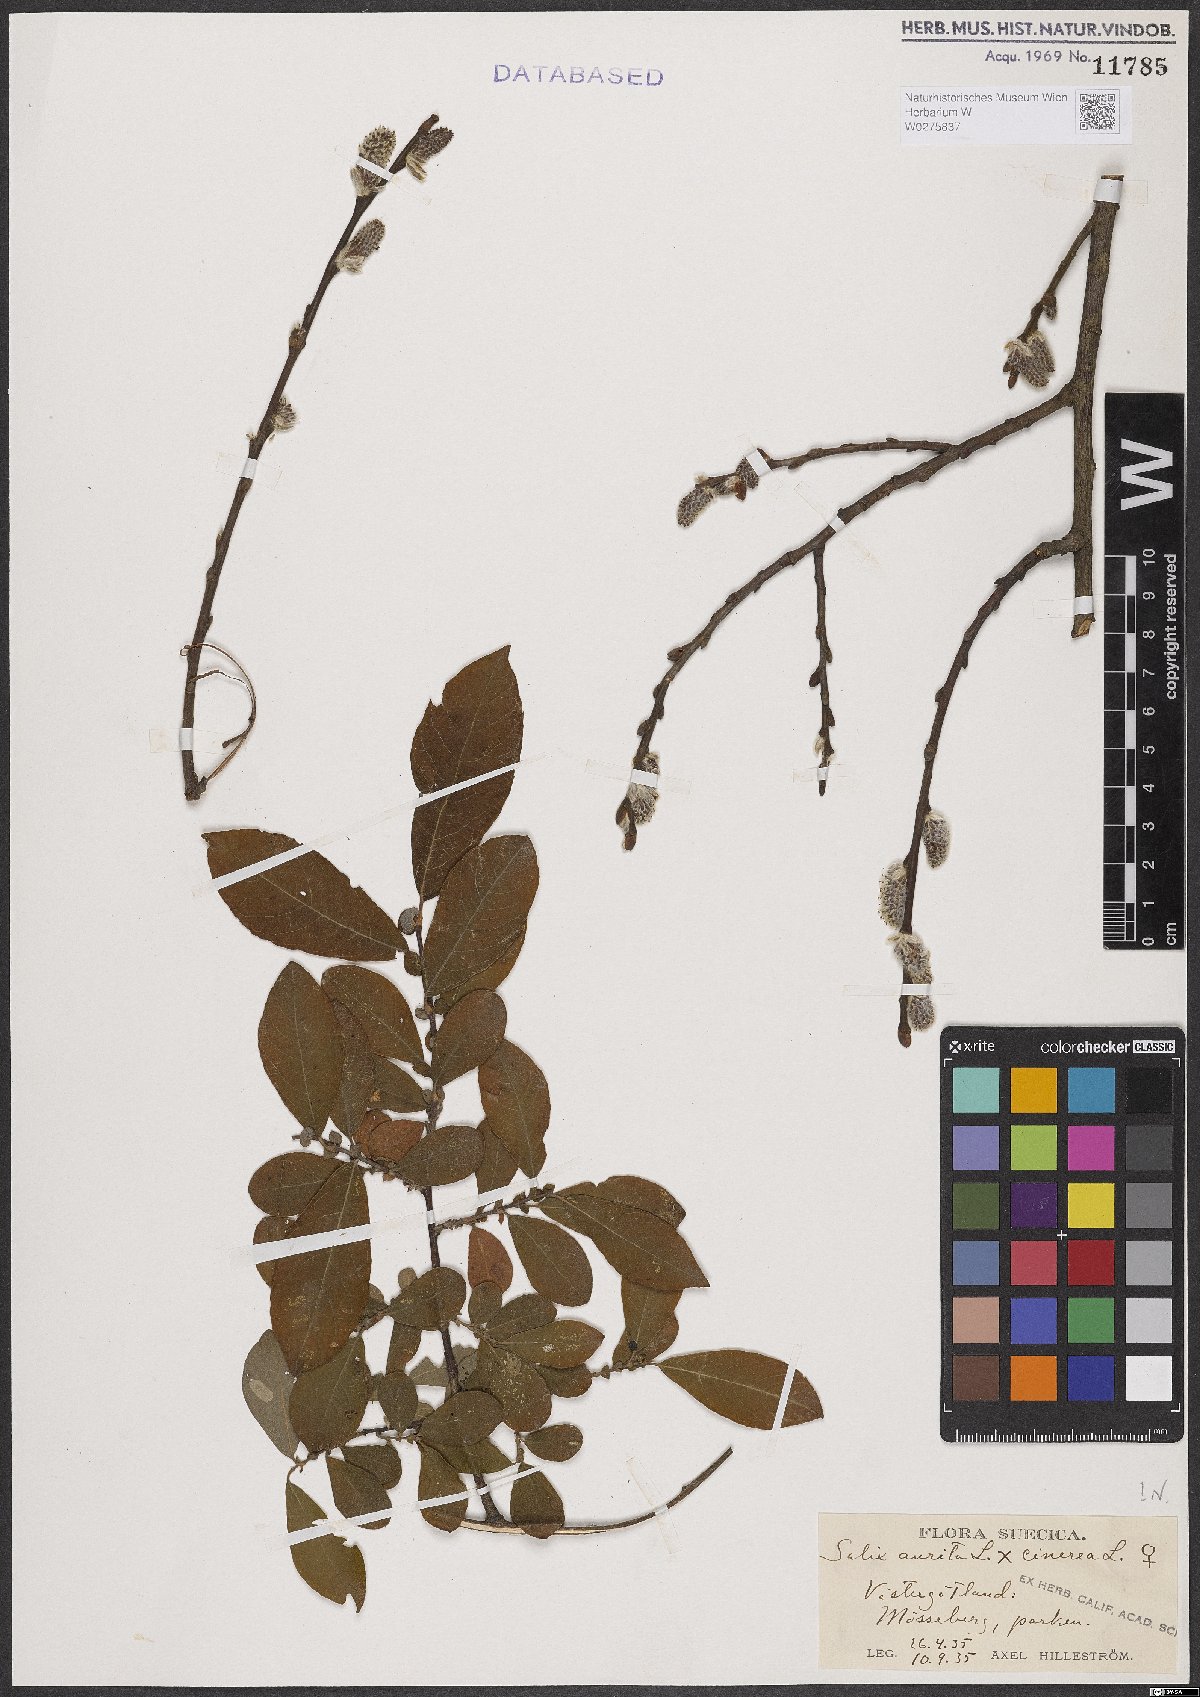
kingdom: Plantae
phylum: Tracheophyta
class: Magnoliopsida
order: Malpighiales
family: Salicaceae
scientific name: Salicaceae
